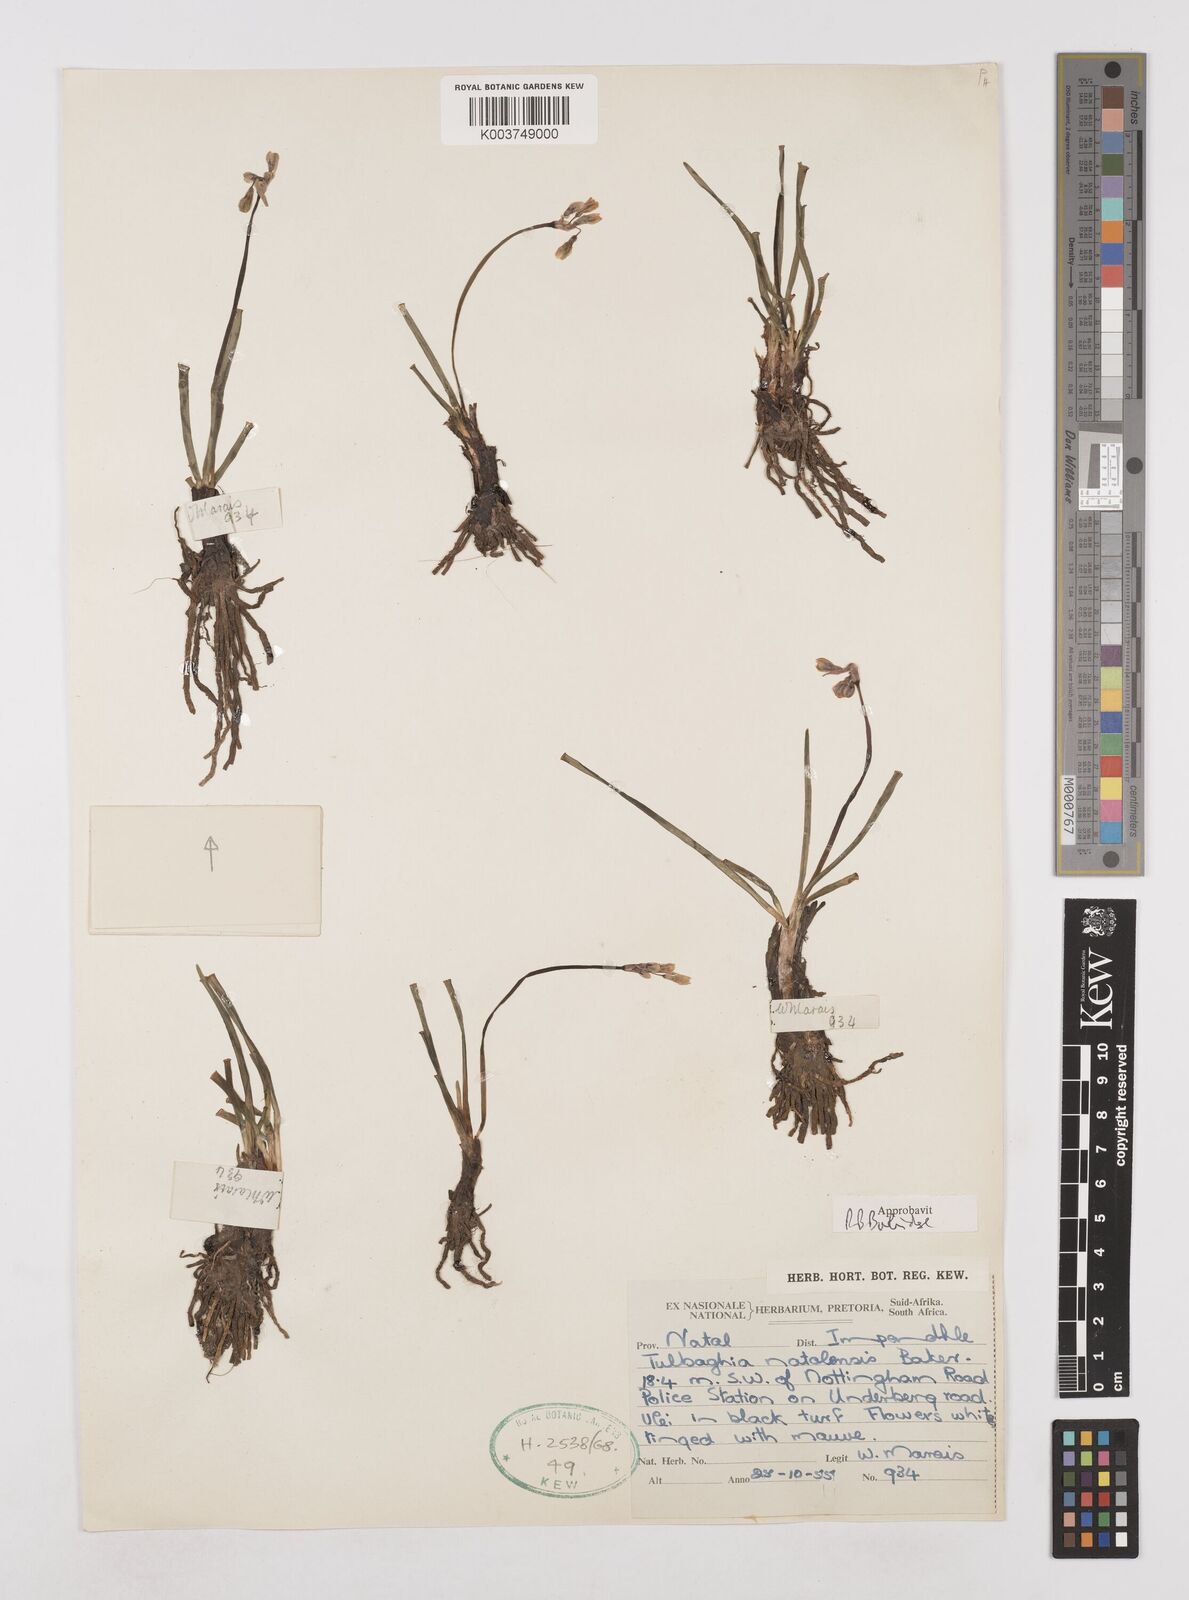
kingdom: Plantae
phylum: Tracheophyta
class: Liliopsida
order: Asparagales
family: Amaryllidaceae
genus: Tulbaghia
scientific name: Tulbaghia natalensis
